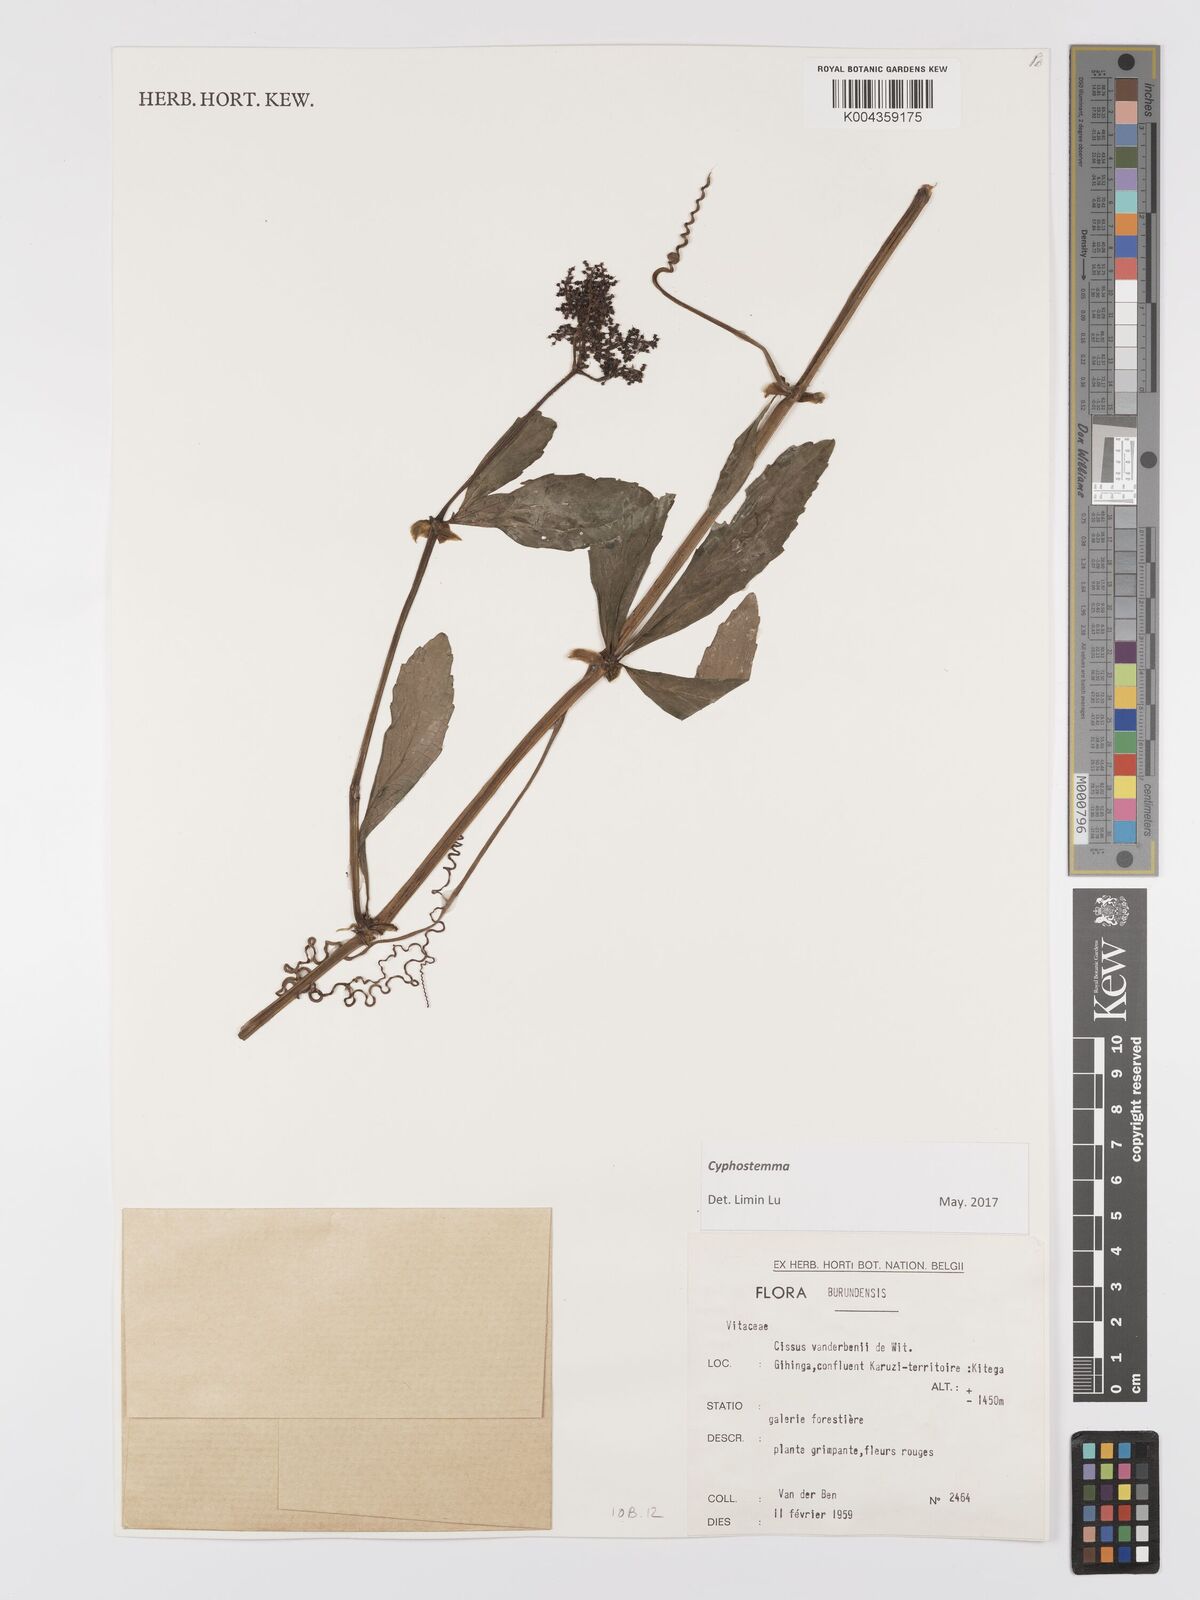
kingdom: Plantae
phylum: Tracheophyta
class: Magnoliopsida
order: Vitales
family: Vitaceae
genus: Cyphostemma
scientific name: Cyphostemma
